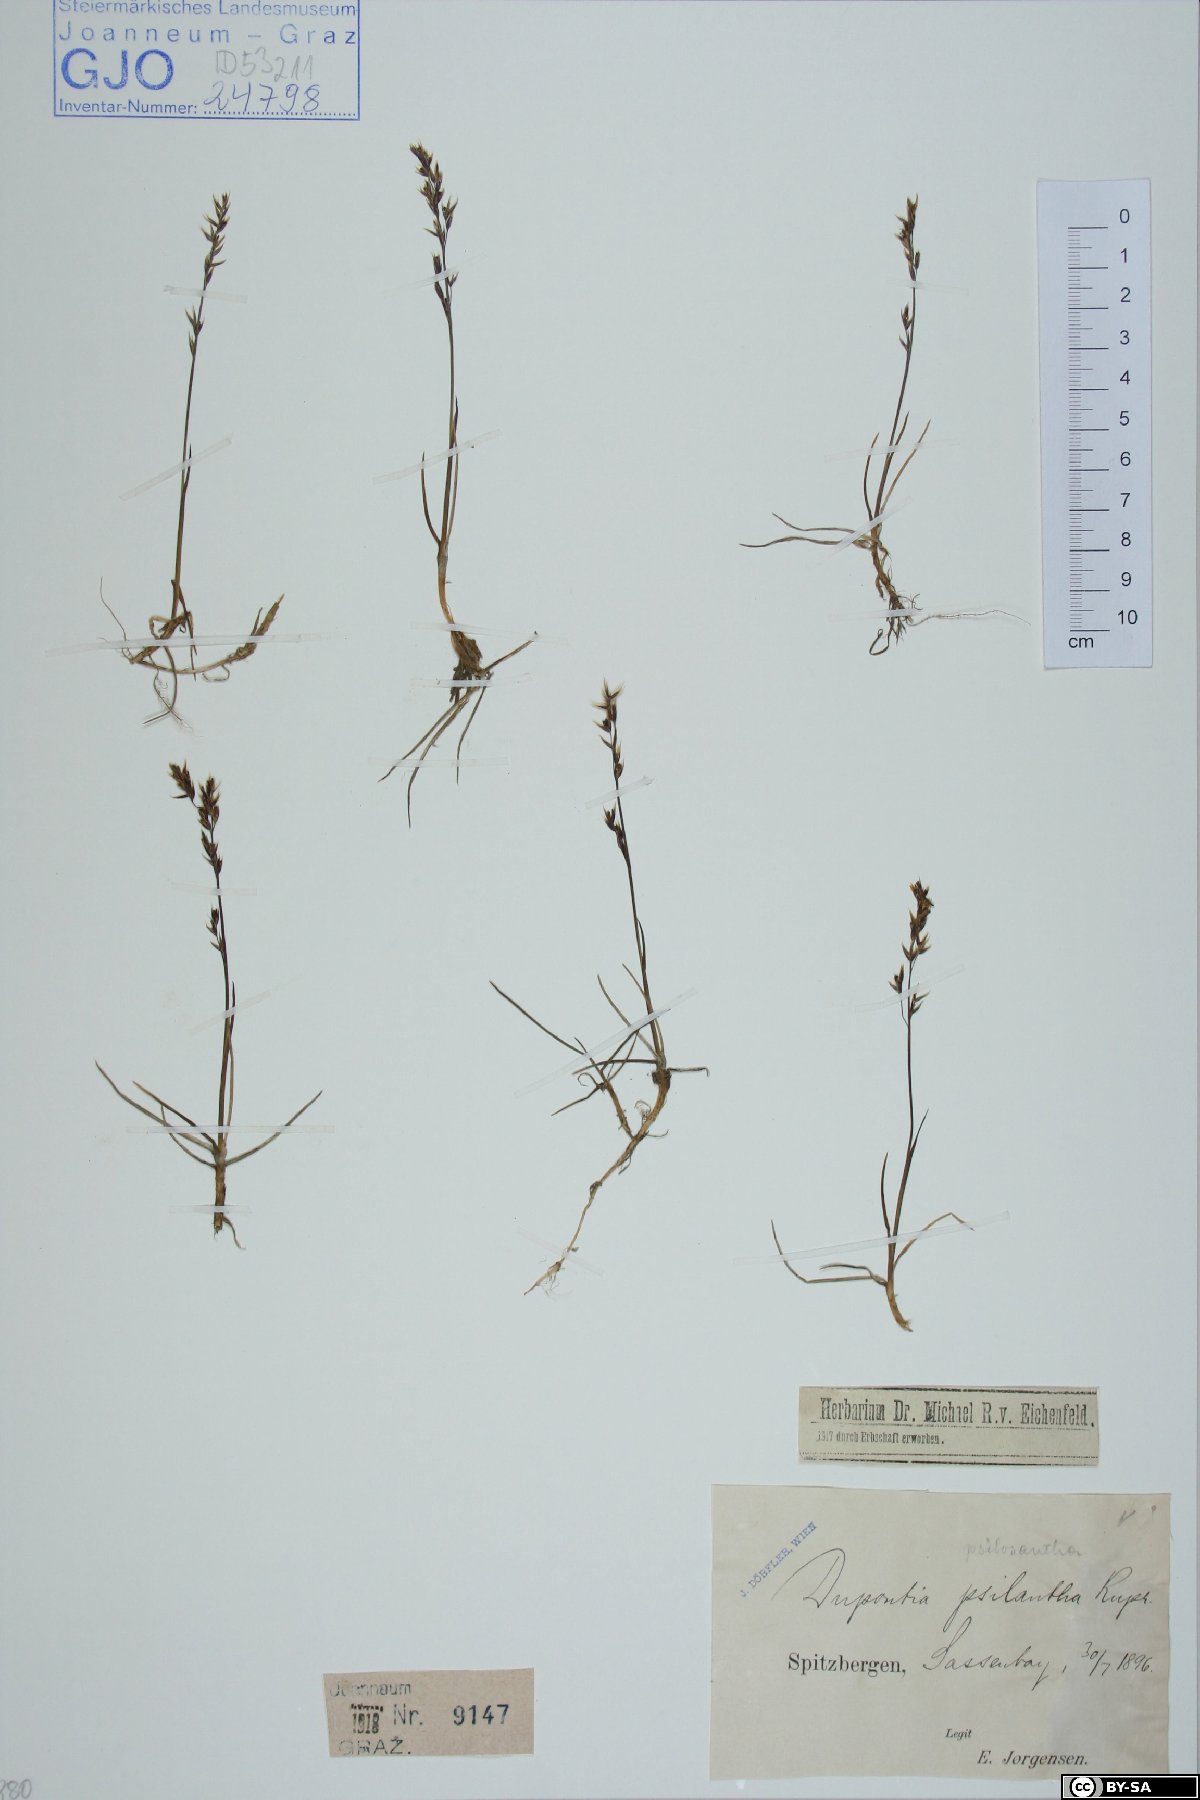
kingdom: Plantae
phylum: Tracheophyta
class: Liliopsida
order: Poales
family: Poaceae
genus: Dupontia
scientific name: Dupontia fisheri
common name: Tundra grass
